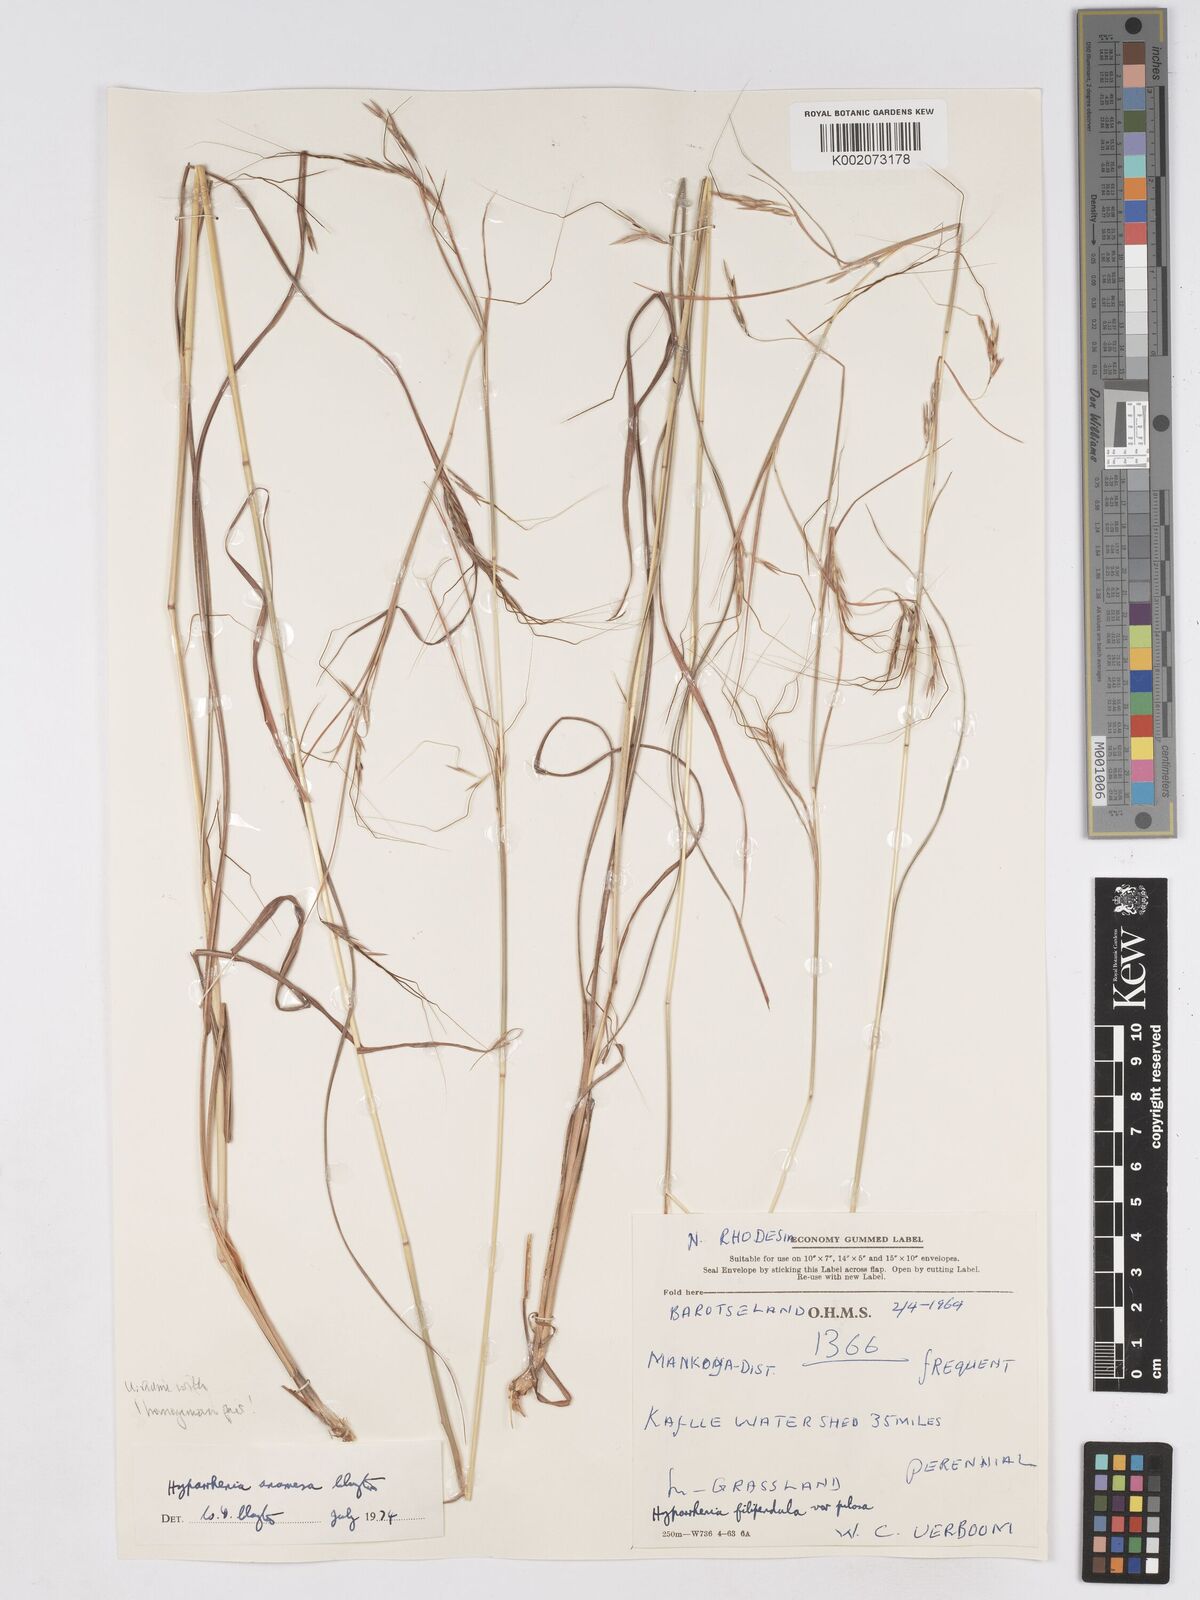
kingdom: Plantae
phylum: Tracheophyta
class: Liliopsida
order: Poales
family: Poaceae
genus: Hyparrhenia
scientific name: Hyparrhenia anamesa
